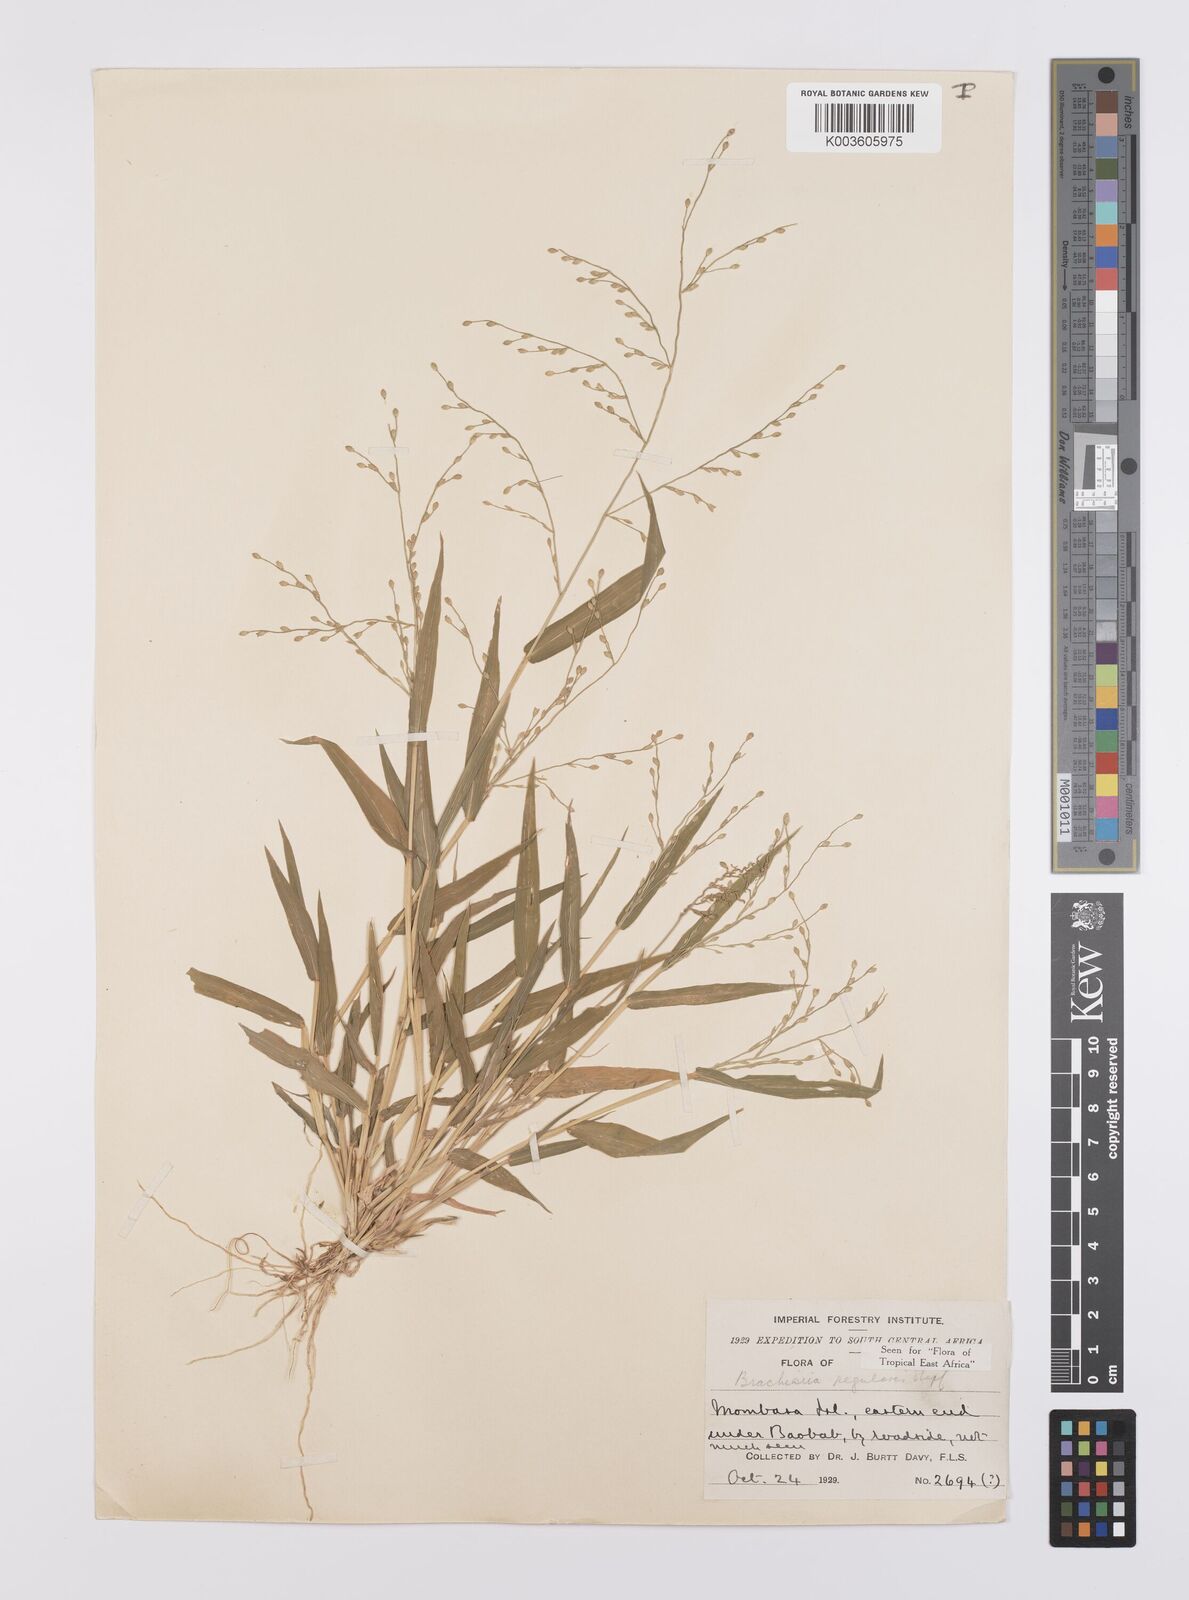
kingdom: Plantae
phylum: Tracheophyta
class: Liliopsida
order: Poales
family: Poaceae
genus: Urochloa
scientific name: Urochloa deflexa
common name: Guinea millet
